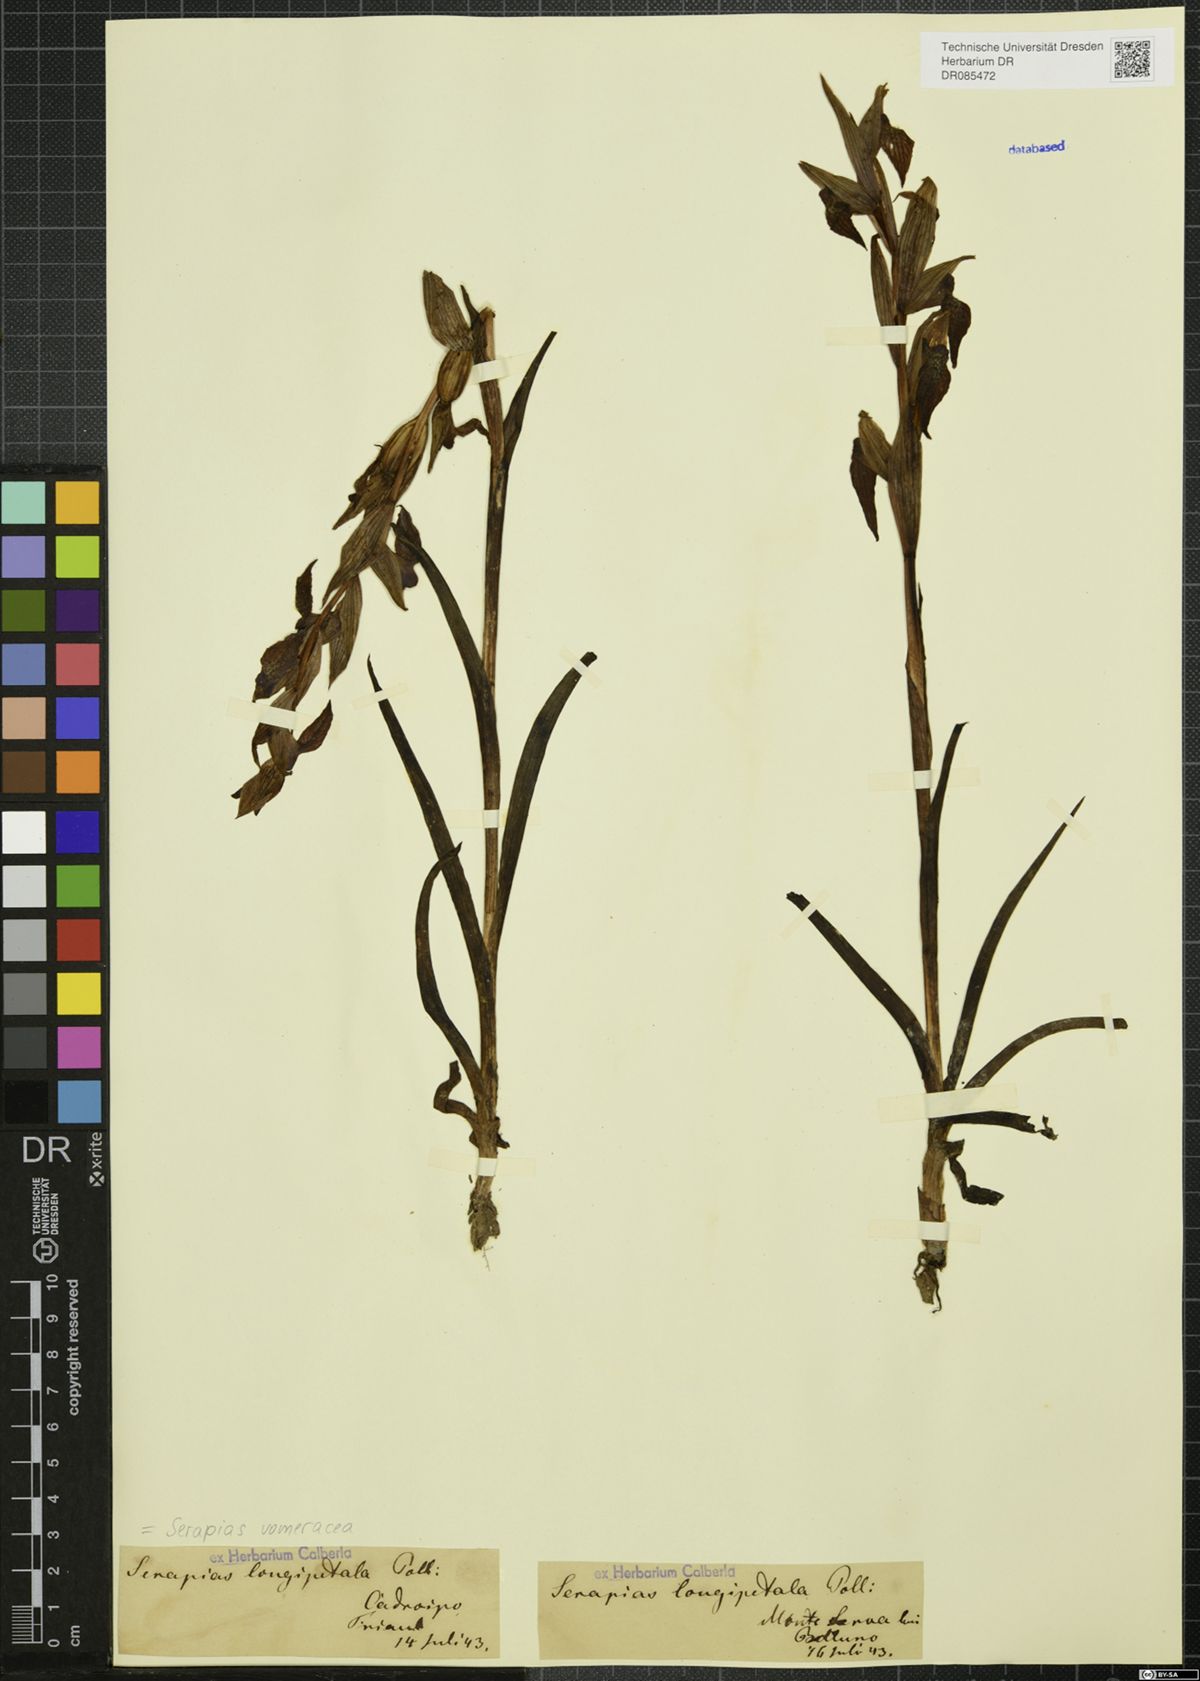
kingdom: Plantae
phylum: Tracheophyta
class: Liliopsida
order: Asparagales
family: Orchidaceae
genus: Serapias
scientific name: Serapias vomeracea
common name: Long-lipped tongue-orchid
